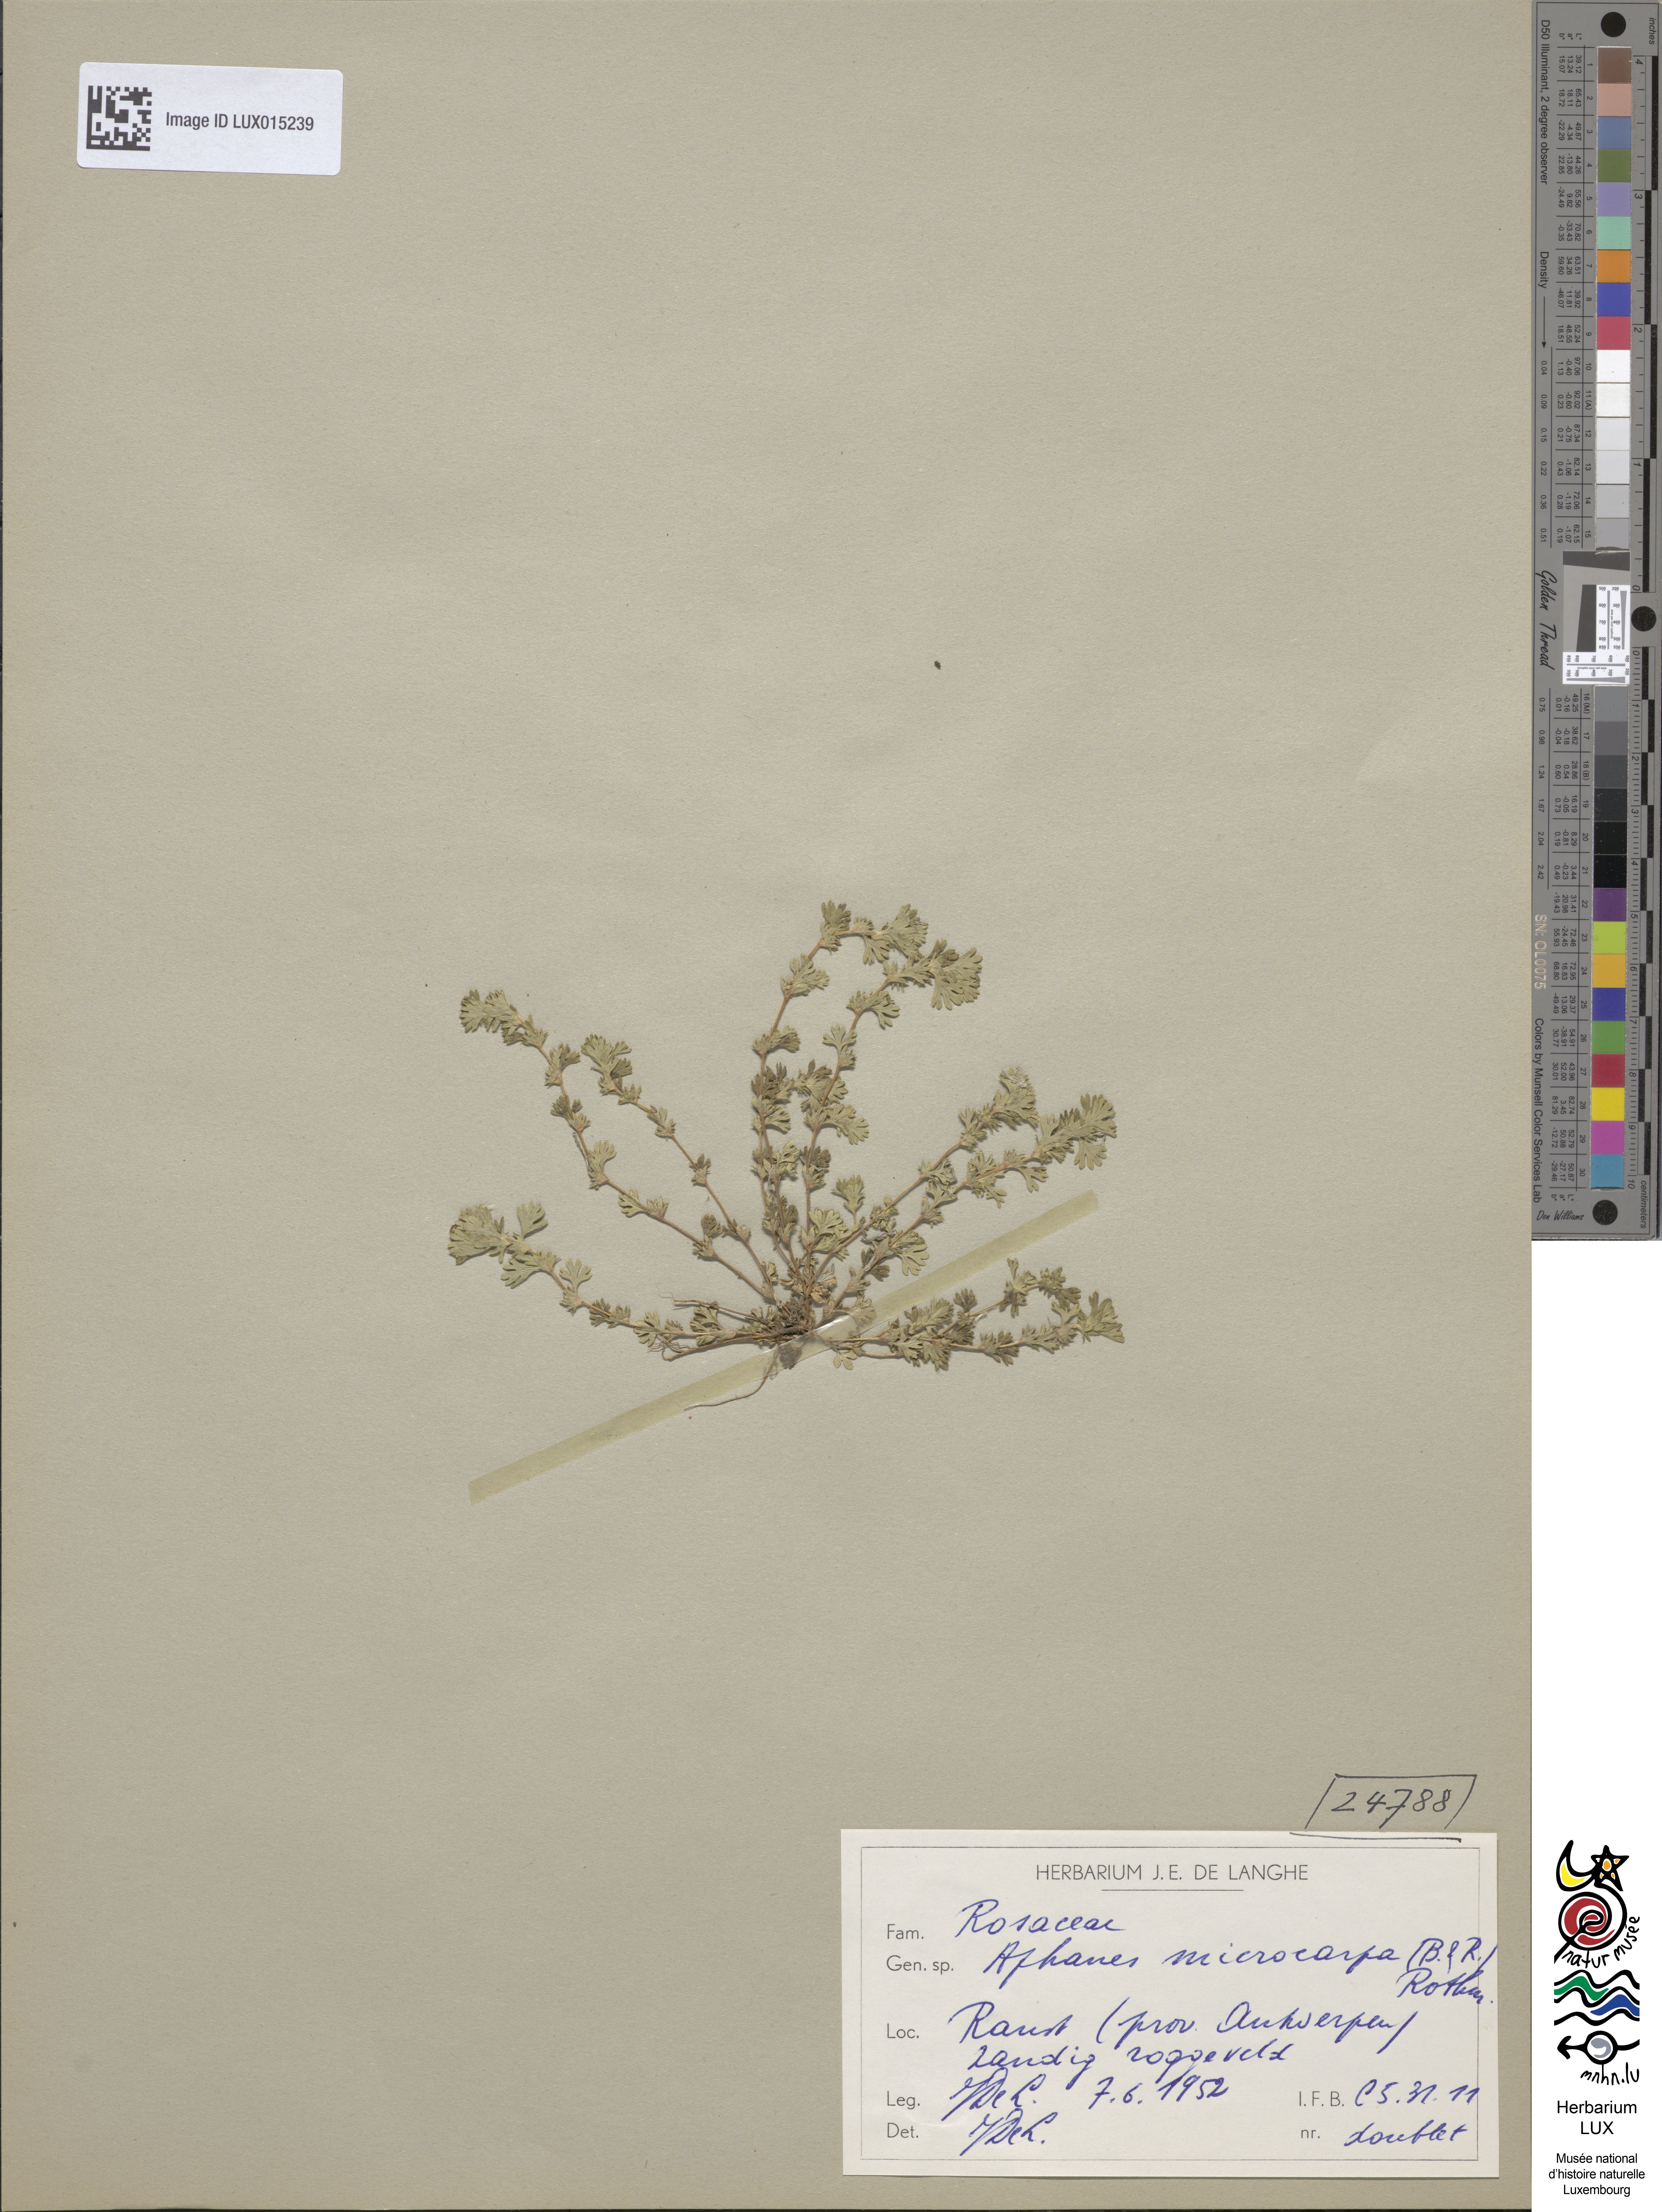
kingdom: Plantae
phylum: Tracheophyta
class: Magnoliopsida
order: Rosales
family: Rosaceae
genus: Aphanes
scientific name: Aphanes microcarpa
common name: Slender parsley piert
